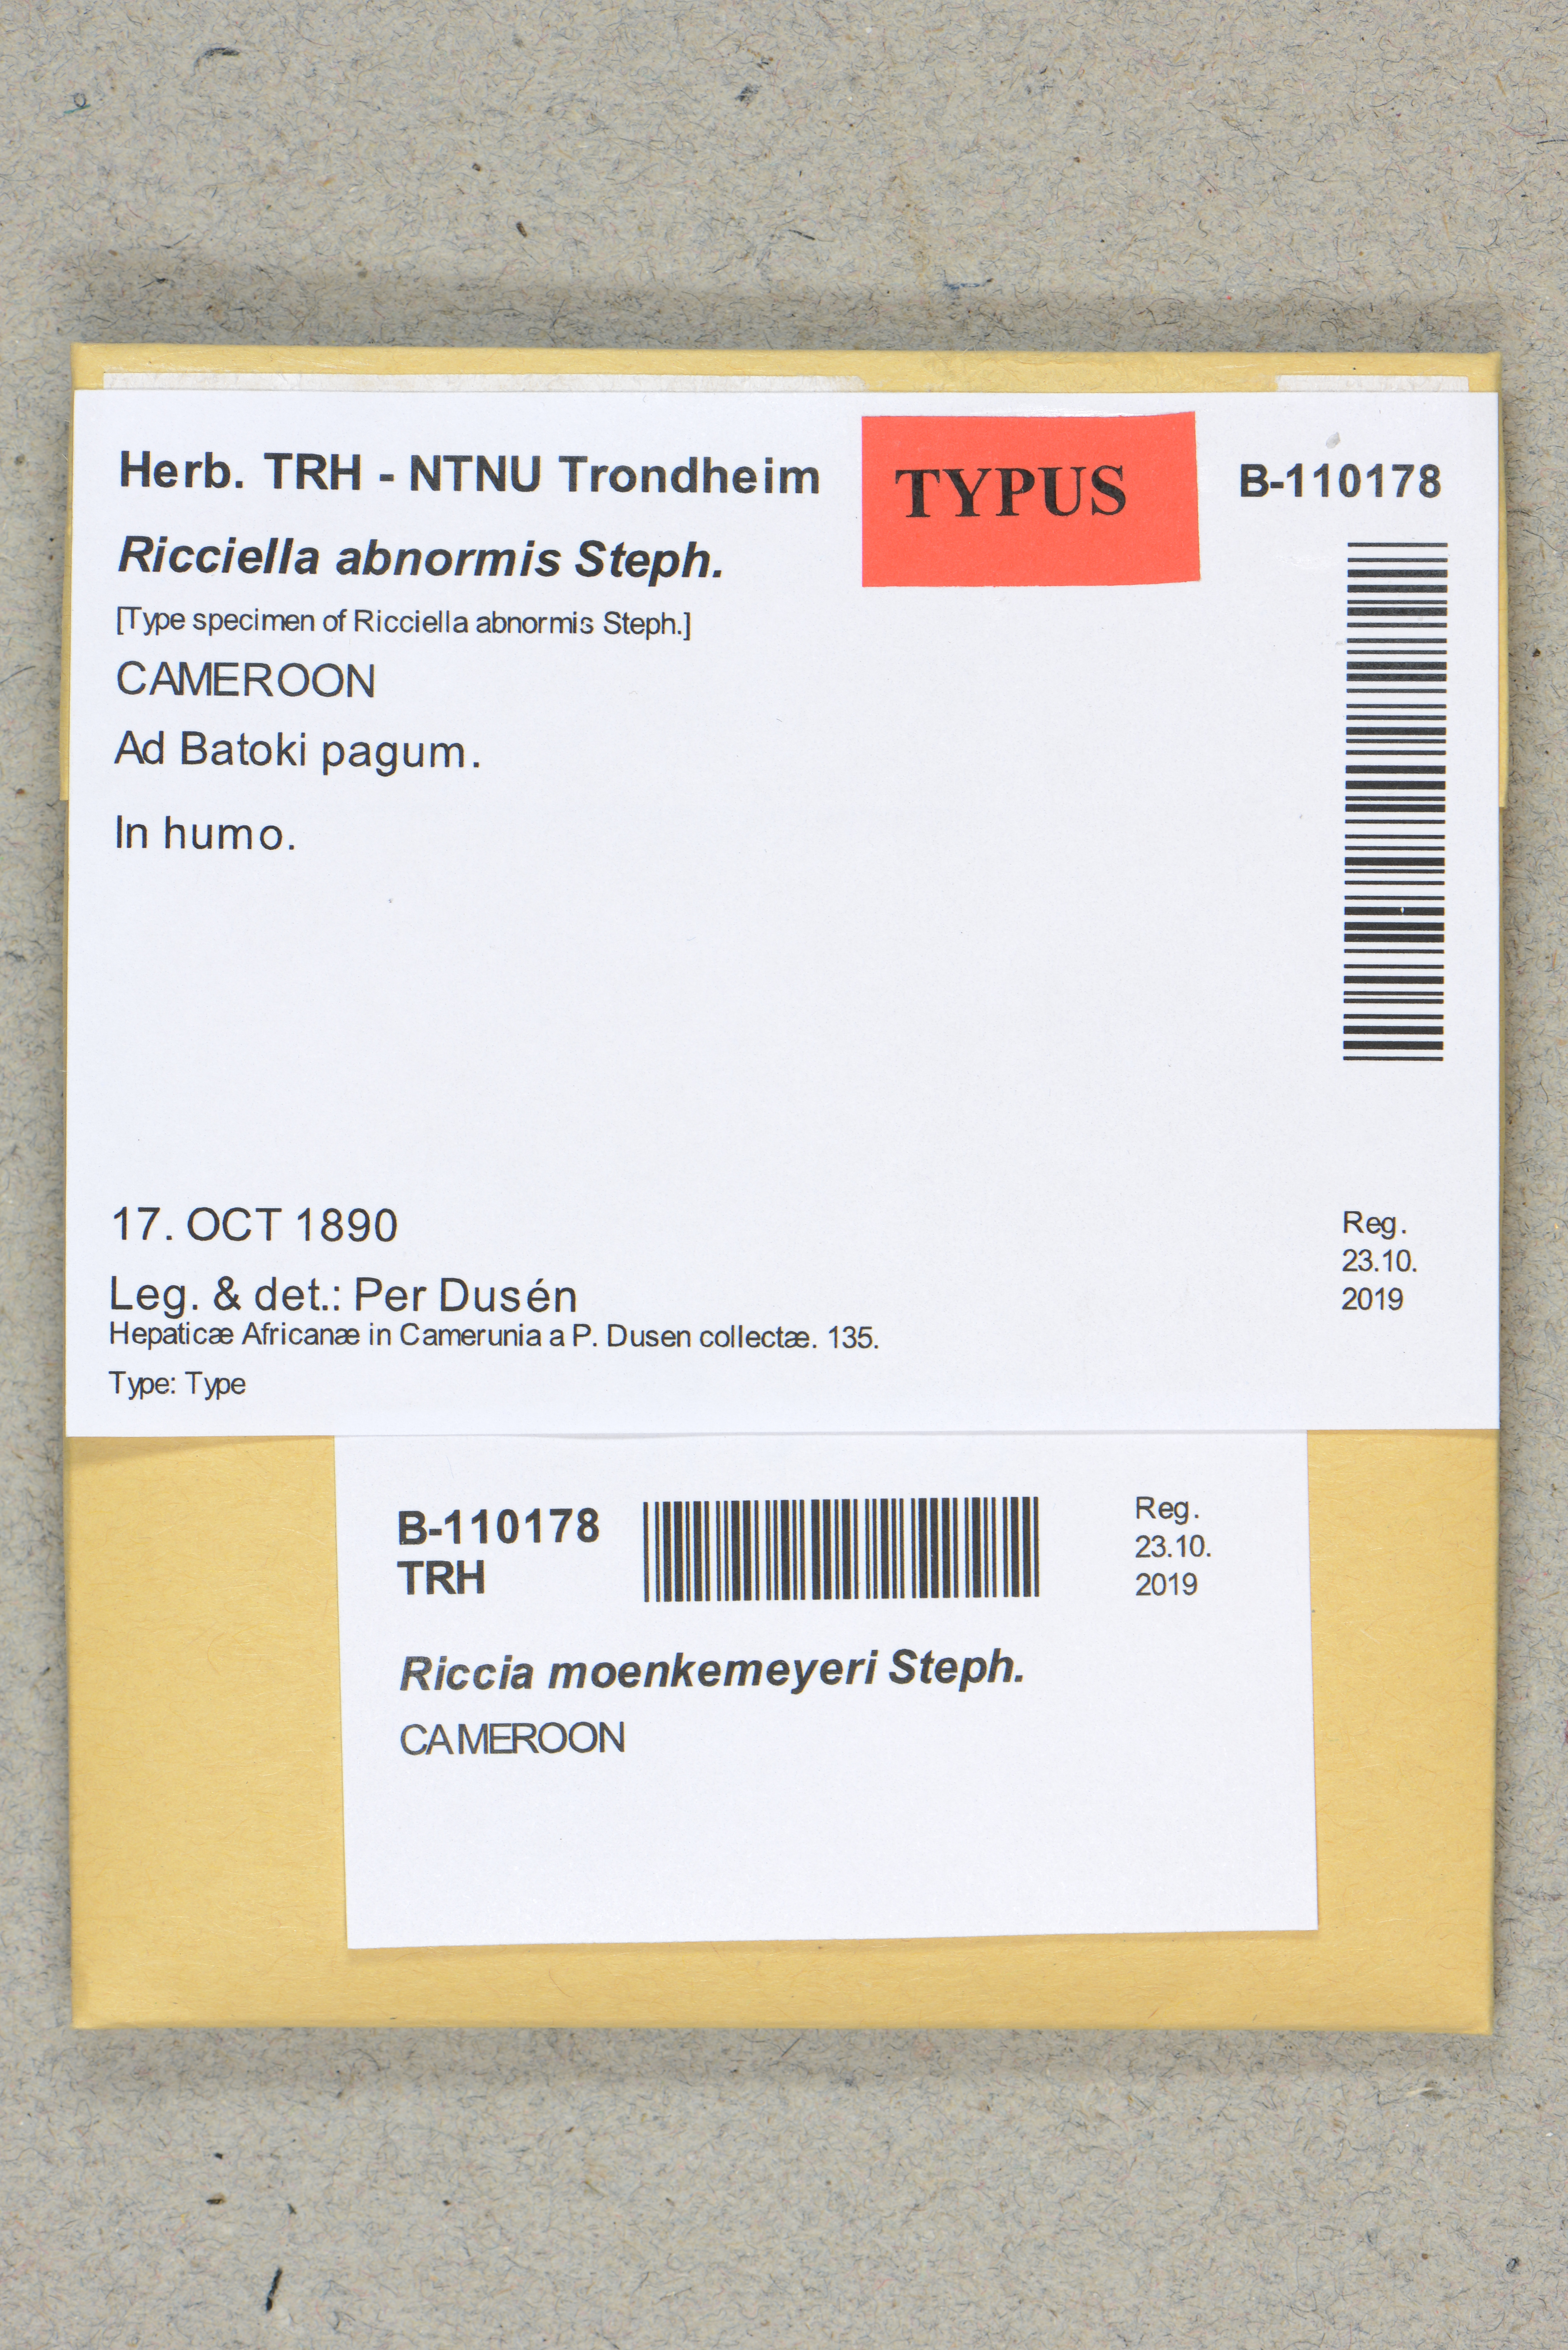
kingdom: Plantae
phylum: Marchantiophyta
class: Marchantiopsida
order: Marchantiales
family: Ricciaceae
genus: Riccia
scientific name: Riccia moenkemeyeri
